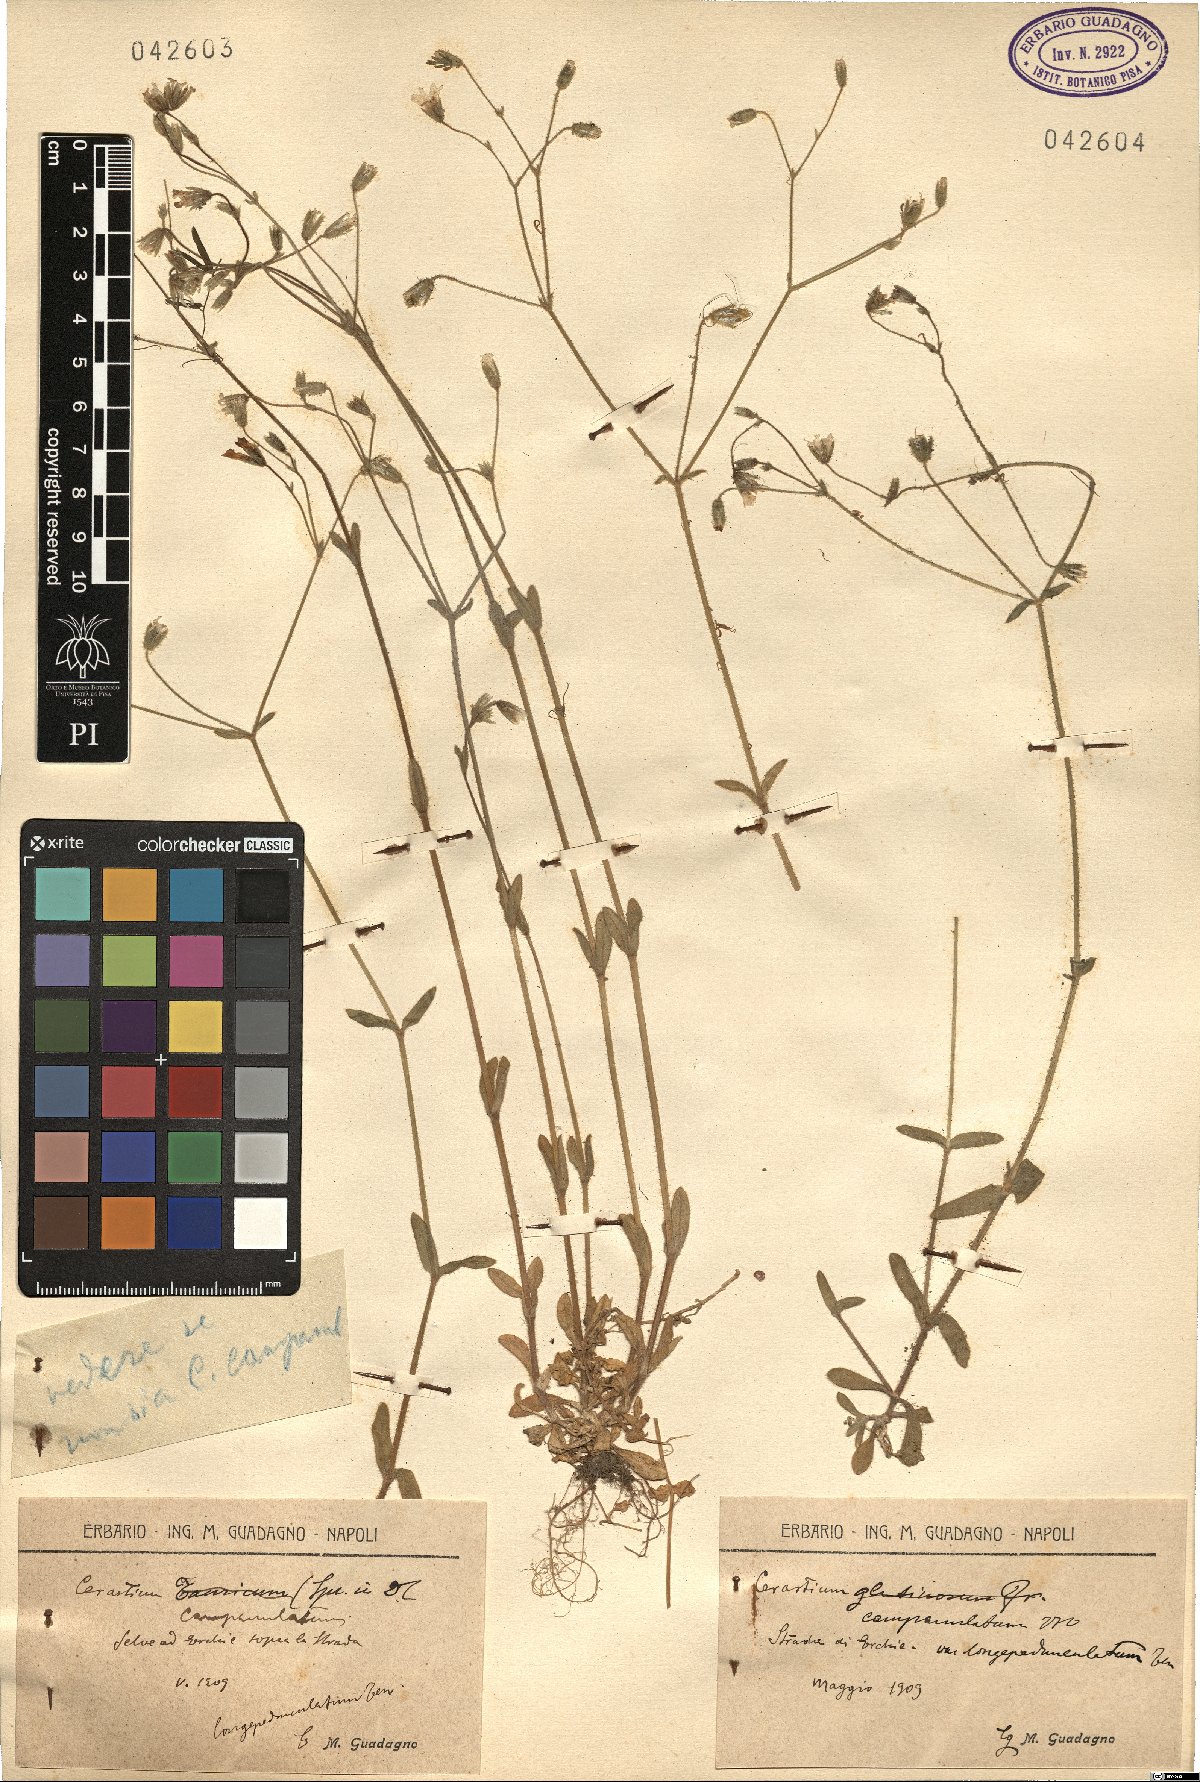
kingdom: Plantae
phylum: Tracheophyta
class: Magnoliopsida
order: Caryophyllales
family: Caryophyllaceae
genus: Cerastium
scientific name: Cerastium ligusticum
